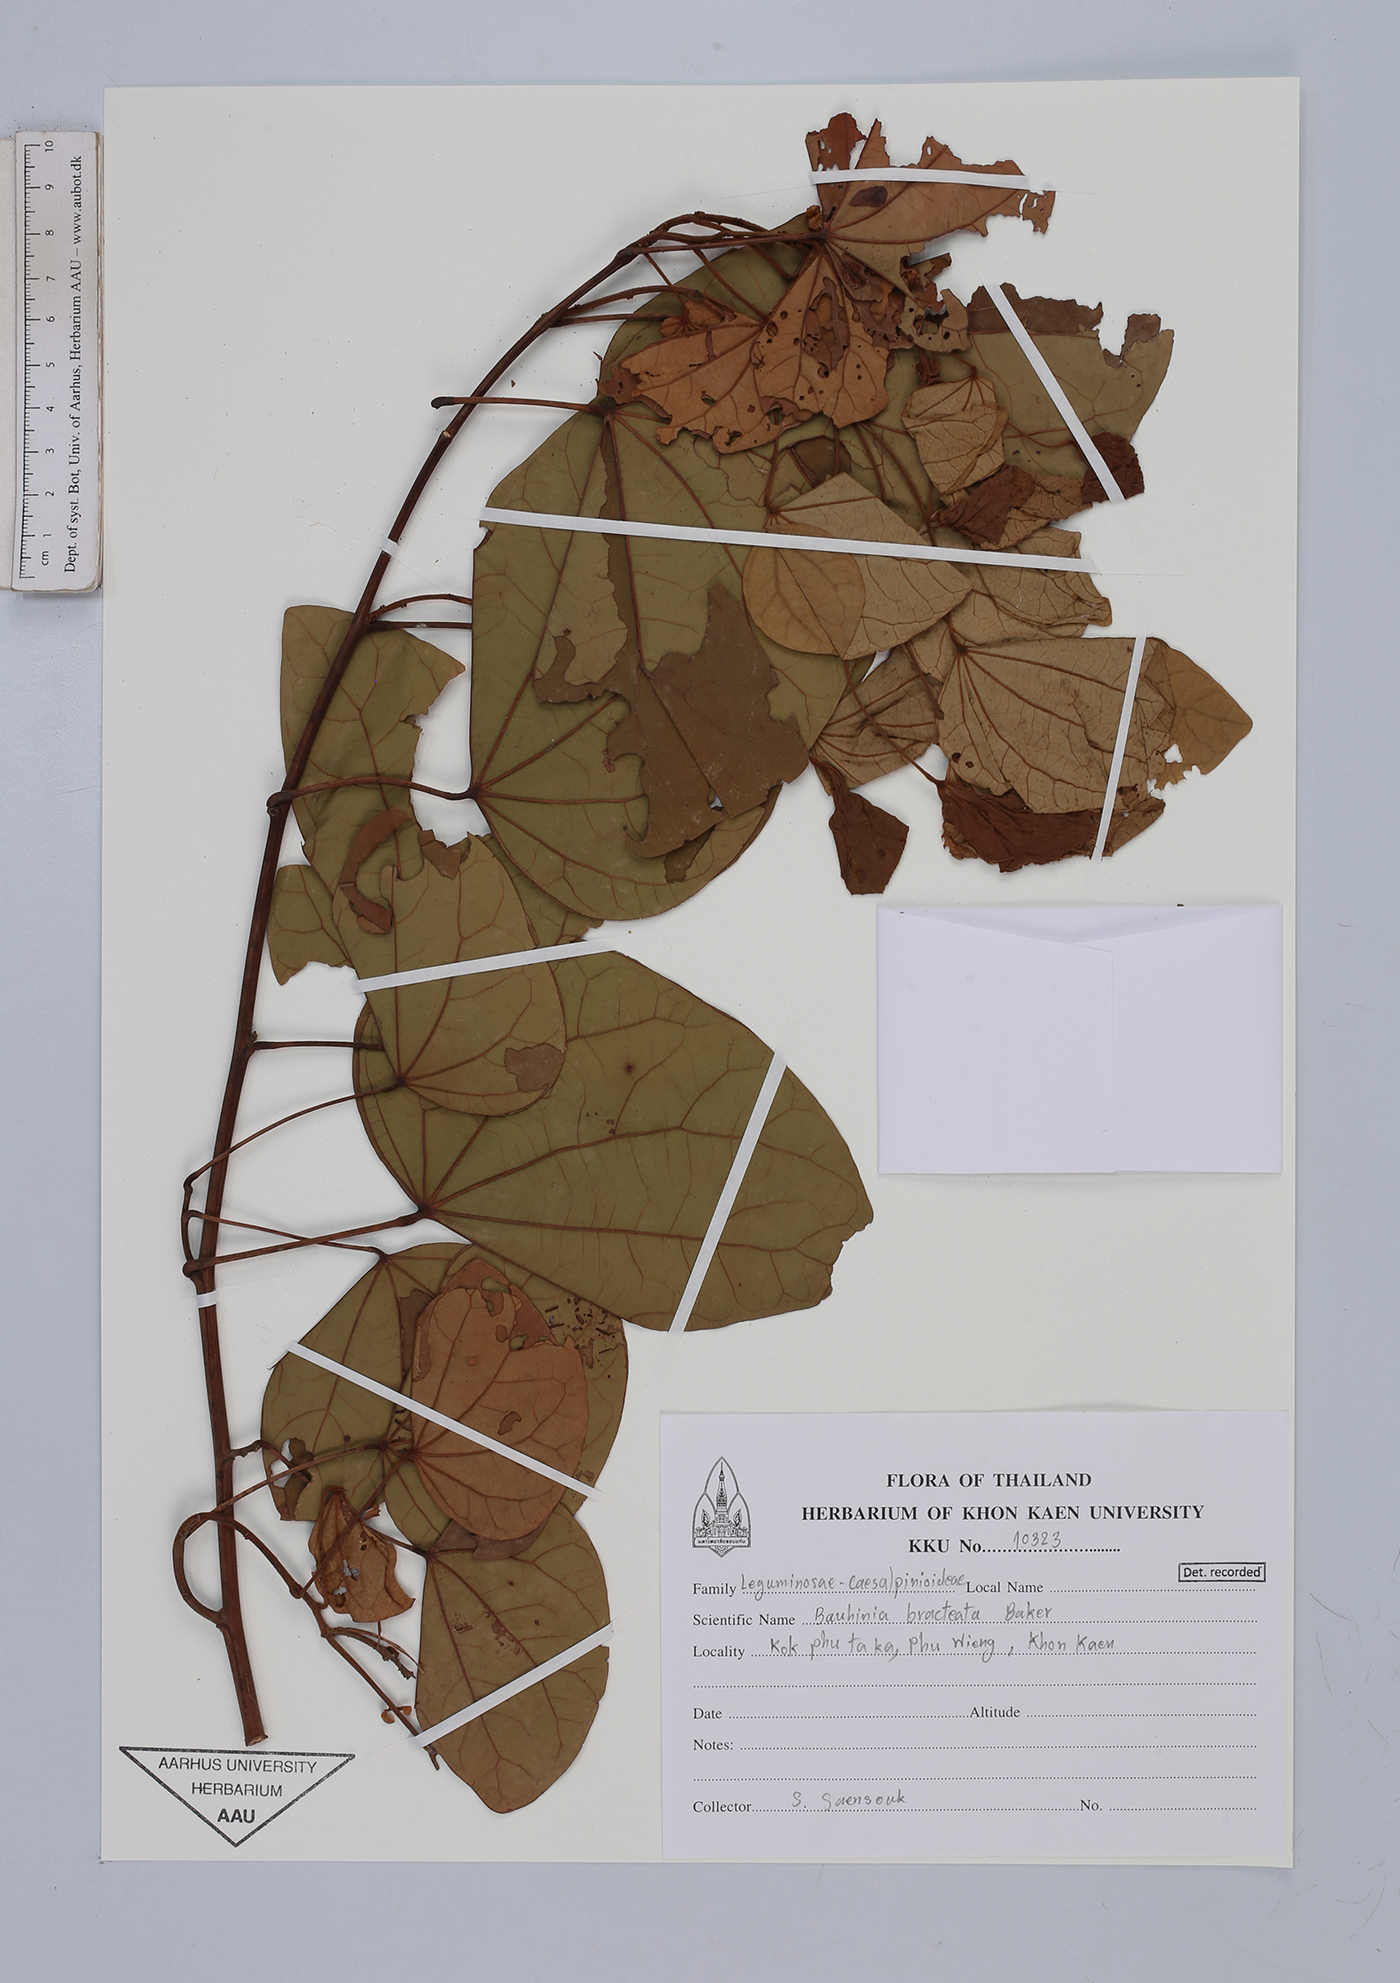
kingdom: Plantae
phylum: Tracheophyta
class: Magnoliopsida
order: Fabales
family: Fabaceae
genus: Phanera
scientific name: Phanera bracteata
